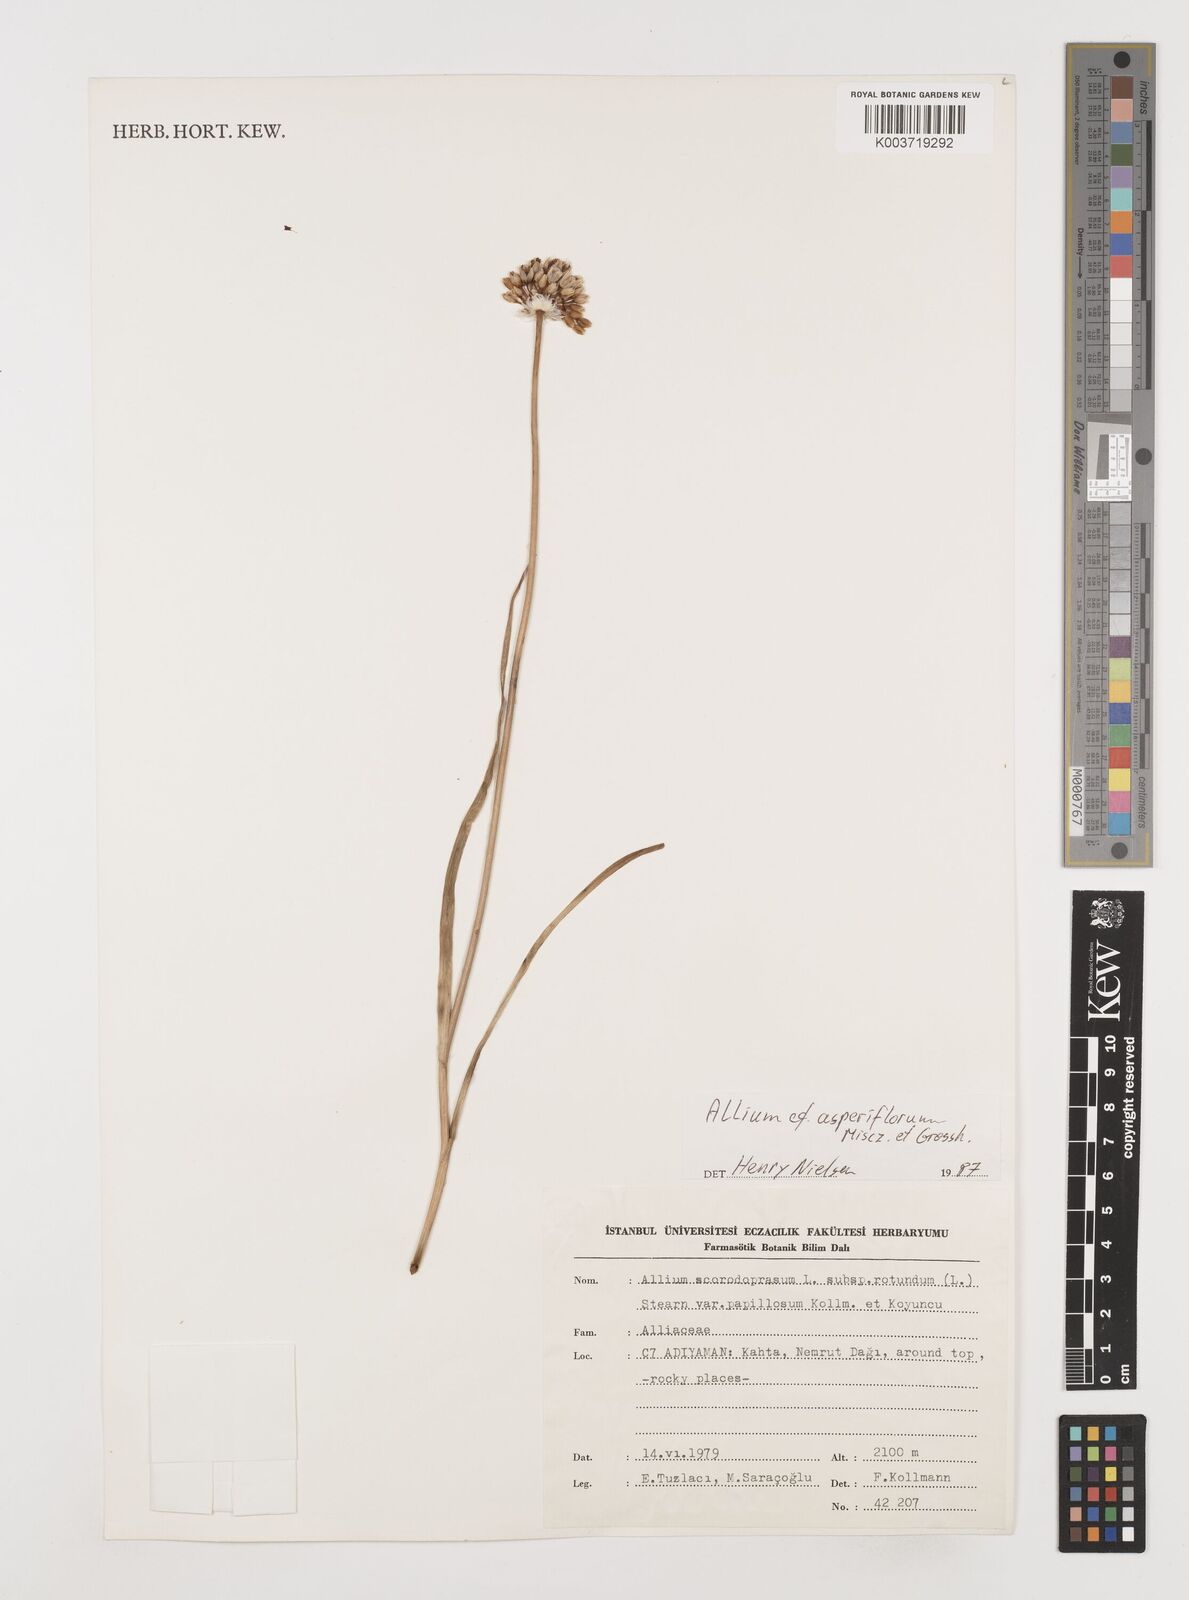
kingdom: Plantae
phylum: Tracheophyta
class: Liliopsida
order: Asparagales
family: Amaryllidaceae
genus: Allium
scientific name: Allium asperiflorum
